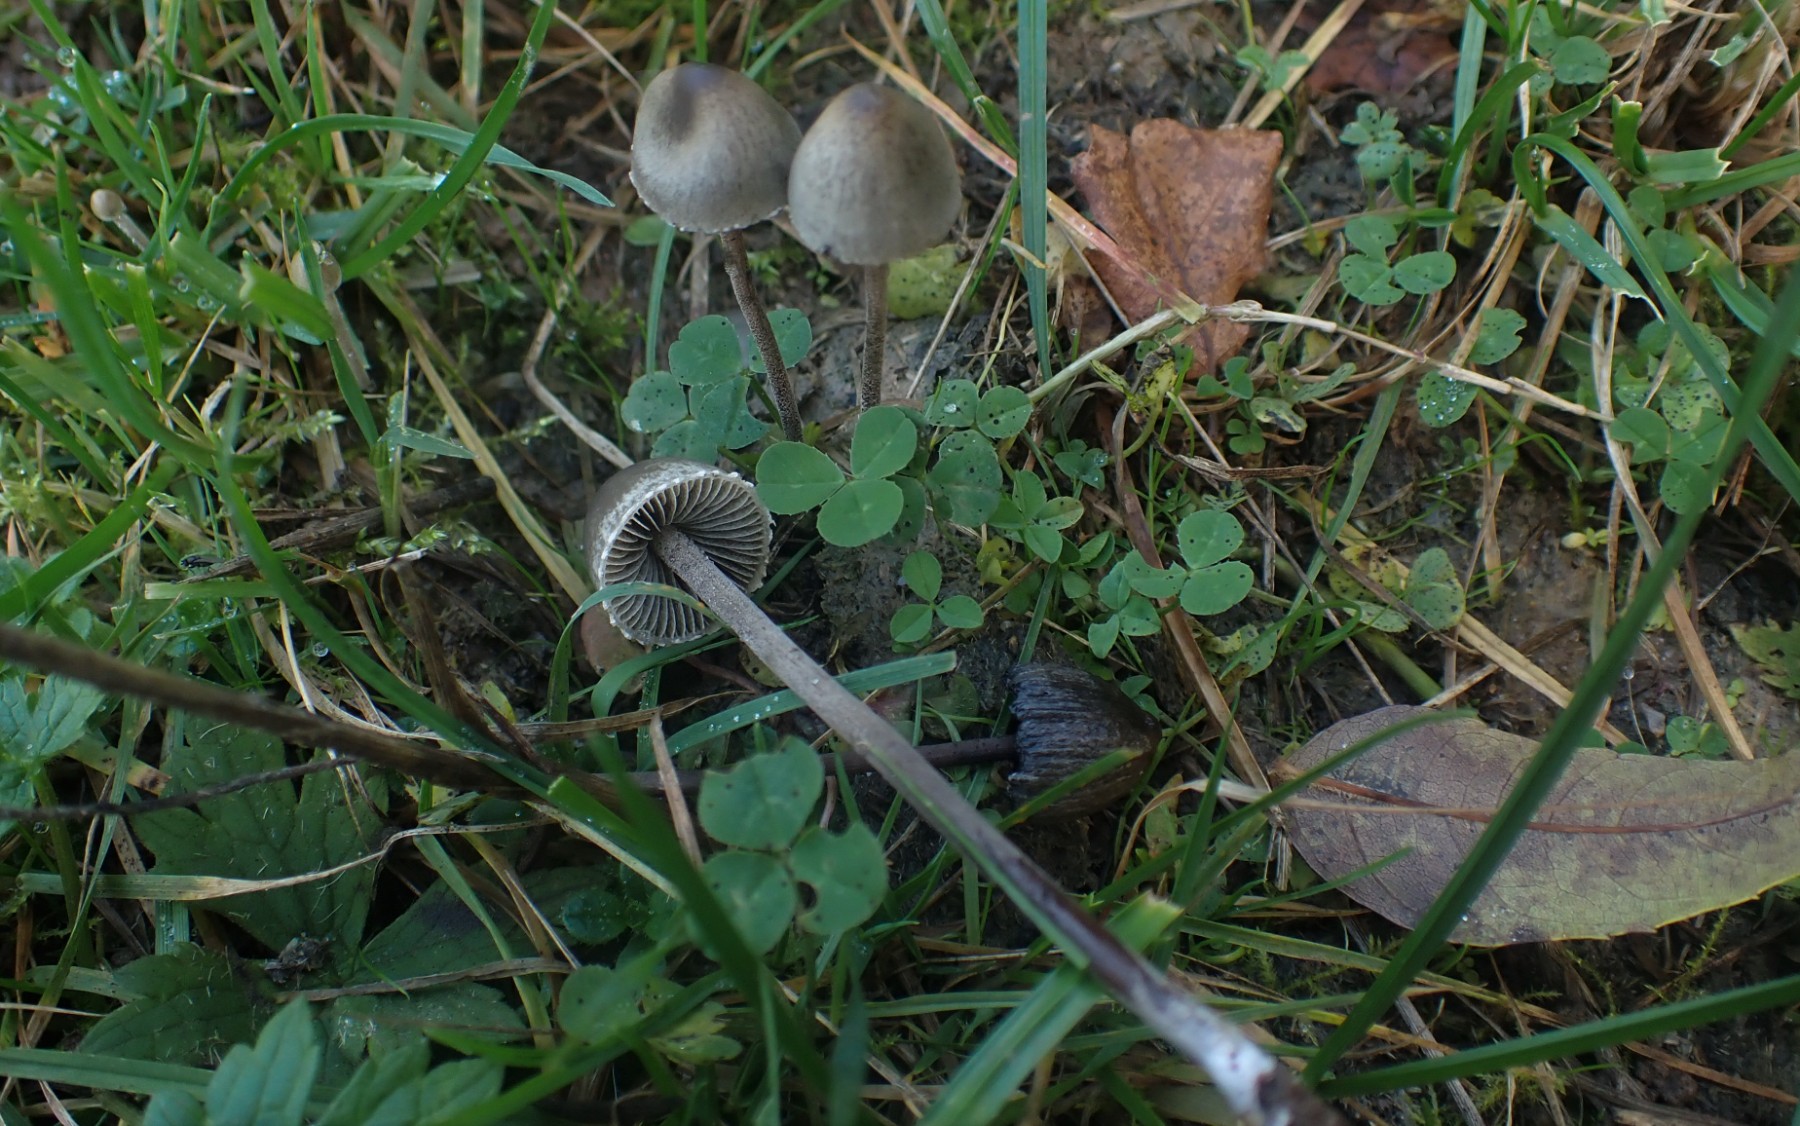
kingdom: Fungi
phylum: Basidiomycota
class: Agaricomycetes
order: Agaricales
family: Bolbitiaceae
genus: Panaeolus
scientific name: Panaeolus papilionaceus
